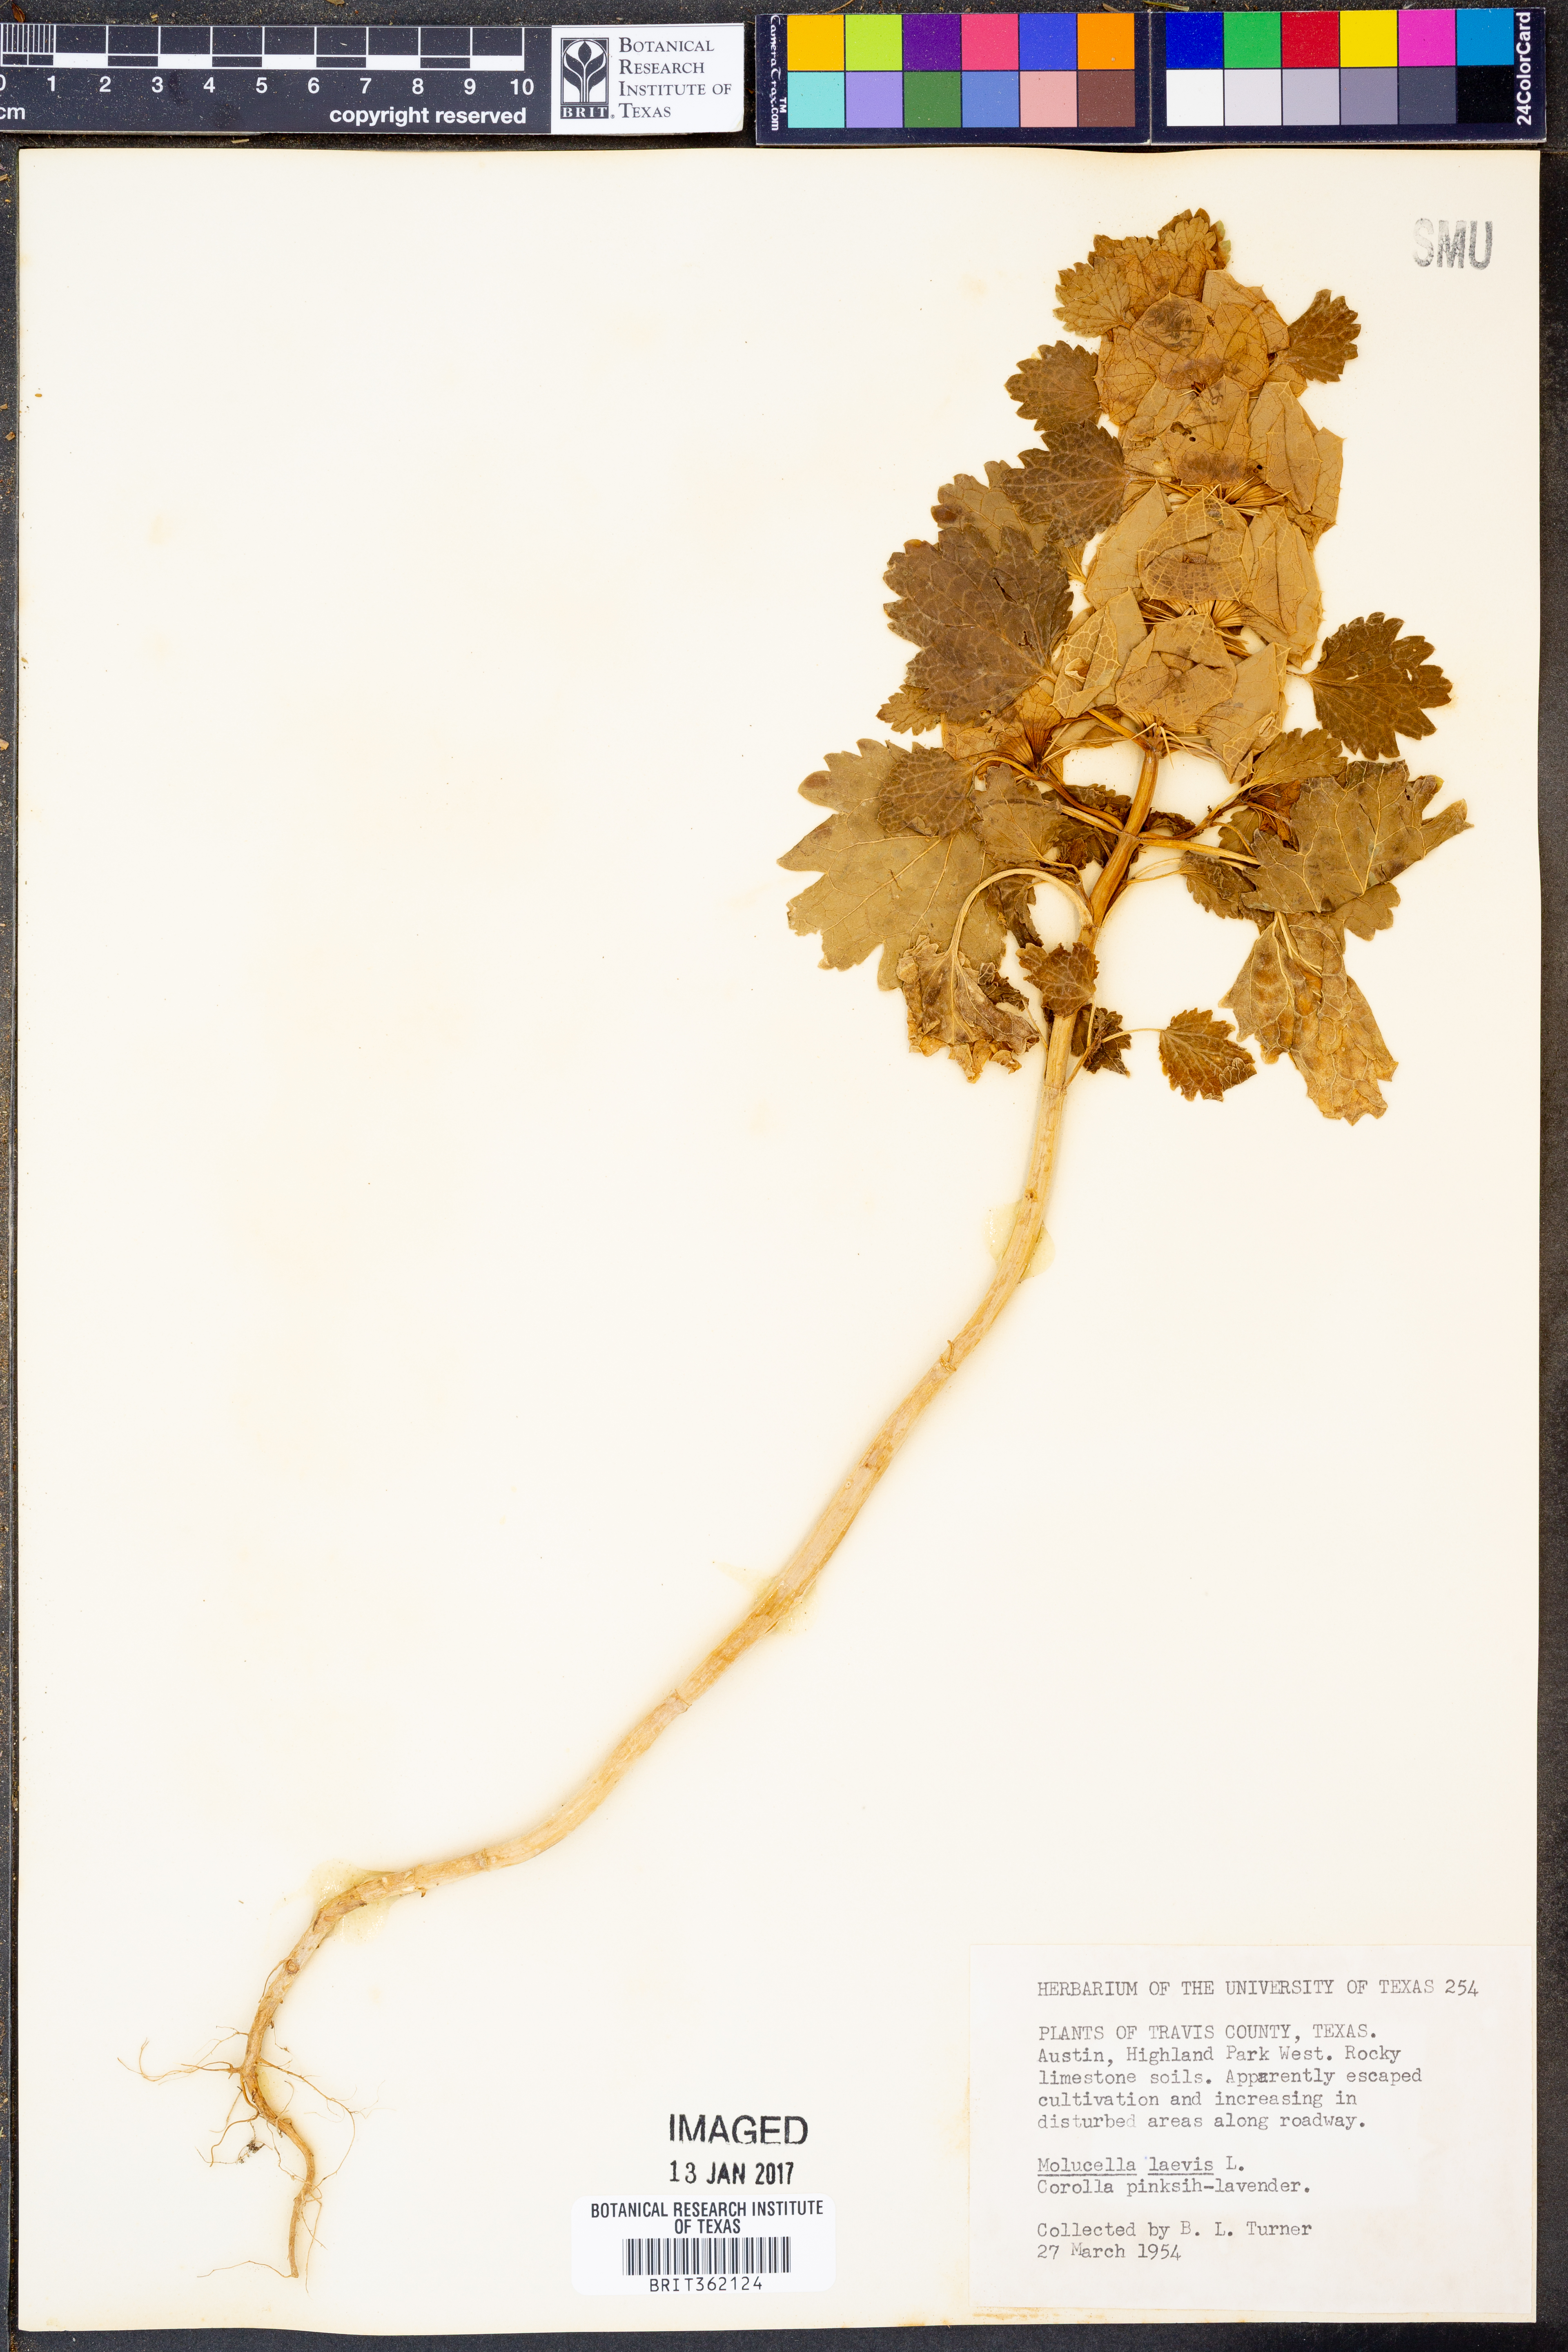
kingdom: Plantae
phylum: Tracheophyta
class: Magnoliopsida
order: Lamiales
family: Lamiaceae
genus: Moluccella
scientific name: Moluccella laevis
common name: Shellflower
